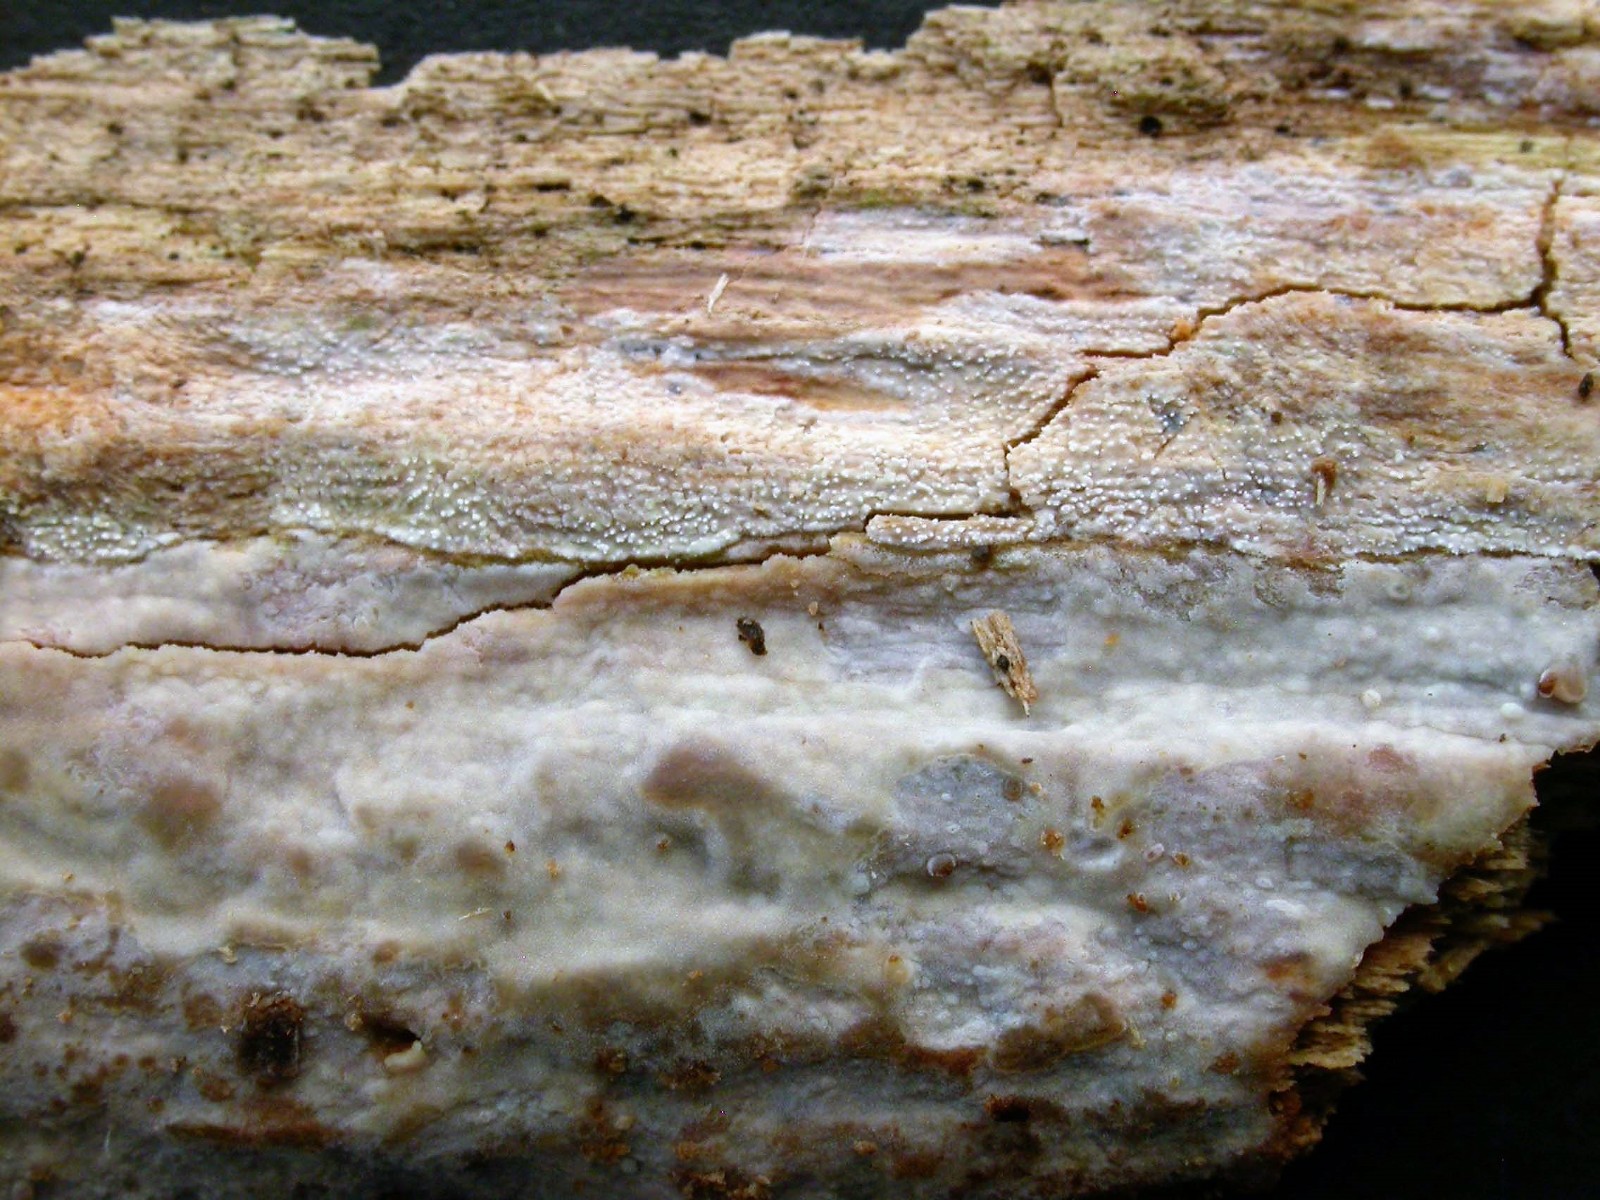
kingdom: Fungi
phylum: Basidiomycota
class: Agaricomycetes
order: Corticiales
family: Corticiaceae
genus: Lyomyces
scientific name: Lyomyces crustosus
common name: vortet hyldehinde
